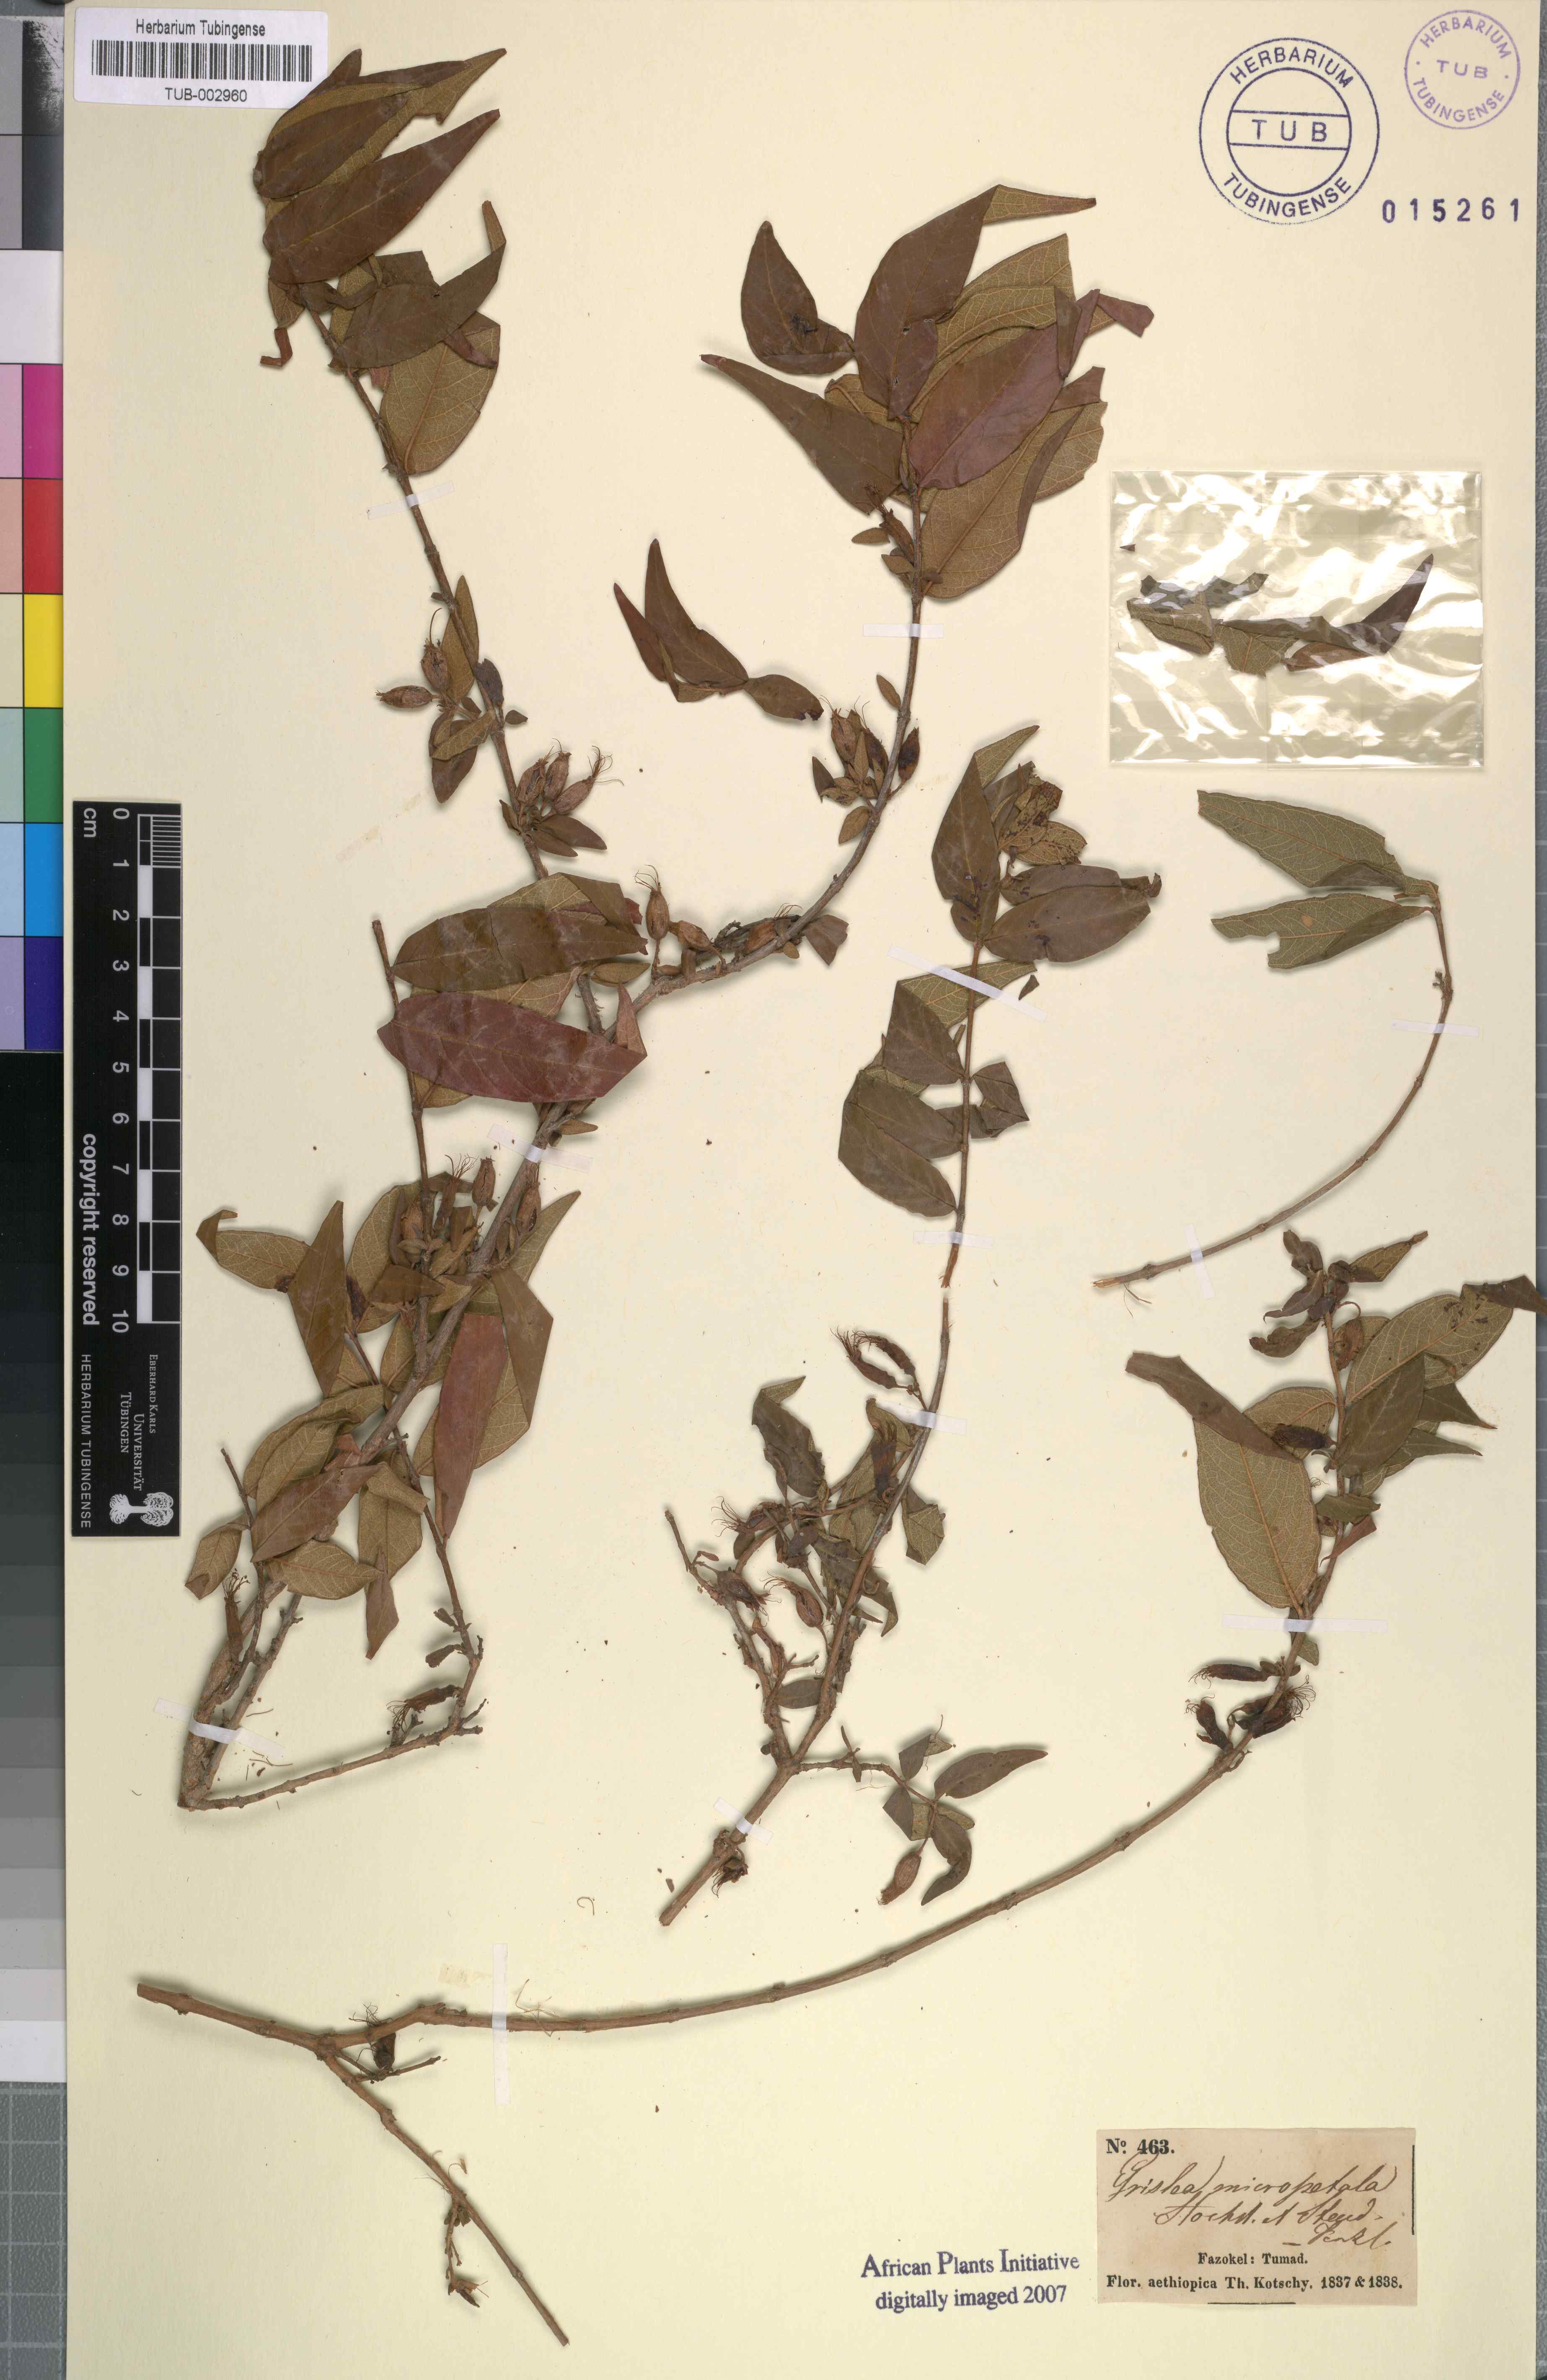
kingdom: Plantae
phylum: Tracheophyta
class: Magnoliopsida
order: Myrtales
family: Lythraceae
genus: Woodfordia
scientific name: Woodfordia uniflora
